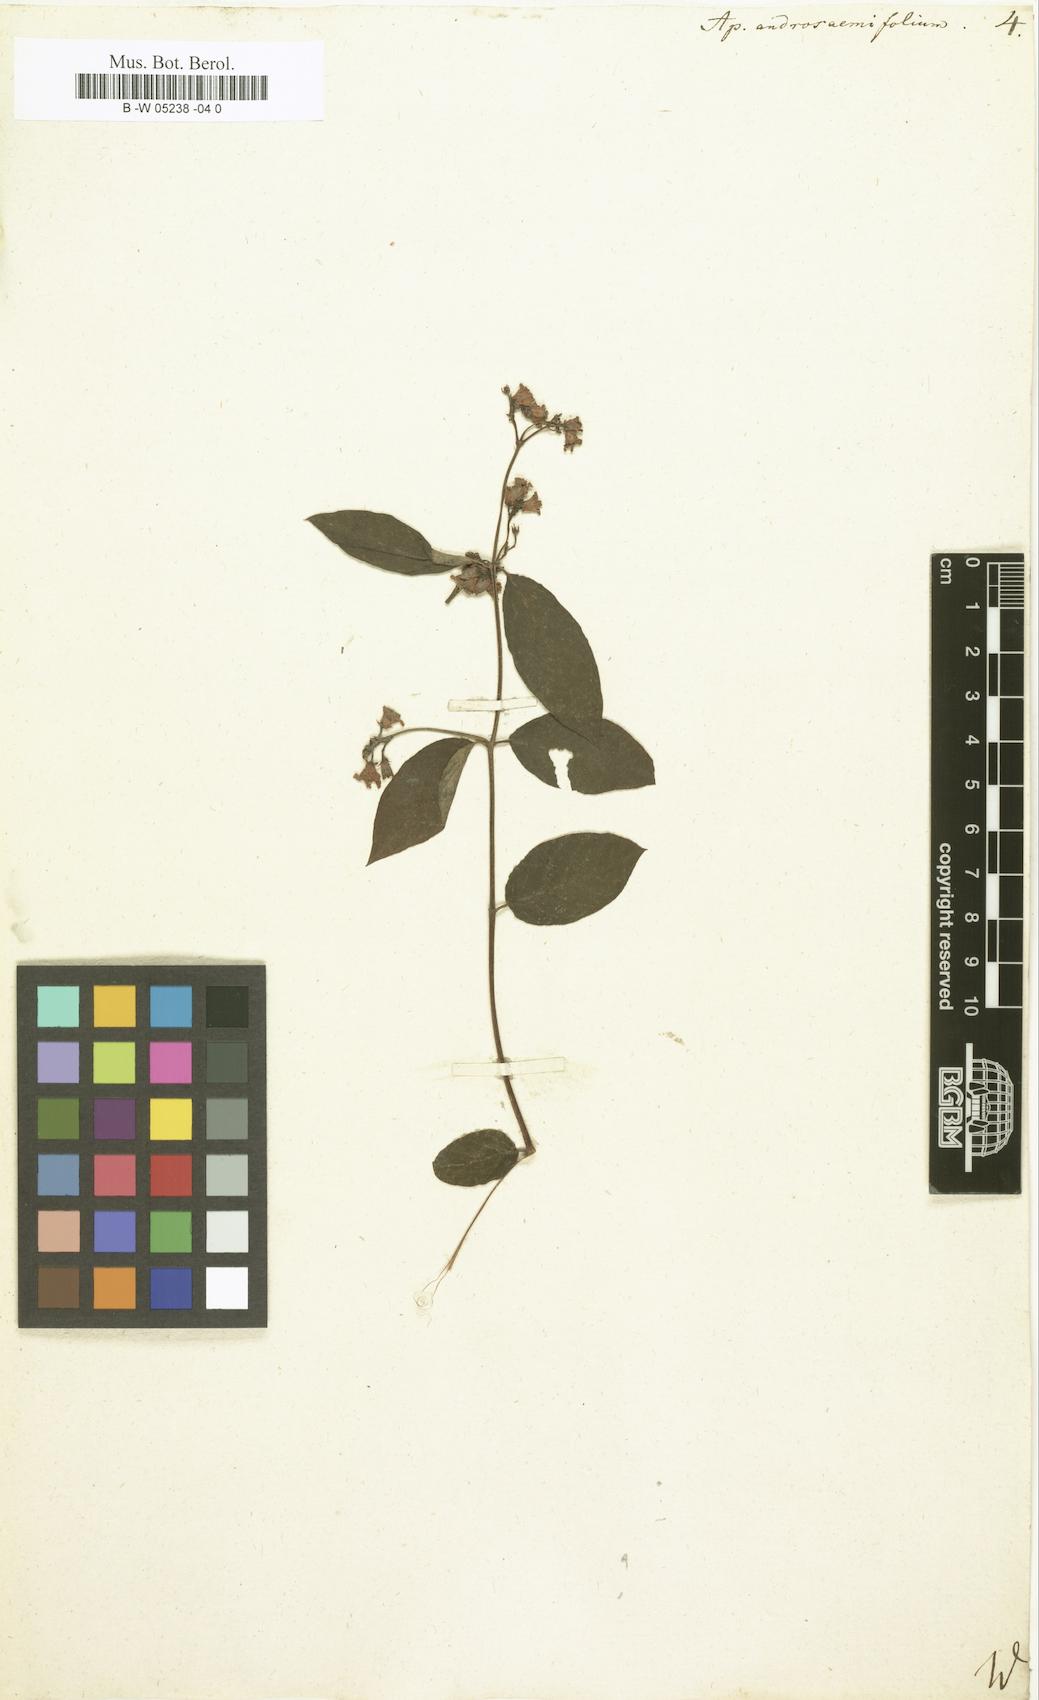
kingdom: Plantae
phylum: Tracheophyta
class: Magnoliopsida
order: Gentianales
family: Apocynaceae
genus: Apocynum
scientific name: Apocynum androsaemifolium
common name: Spreading dogbane
